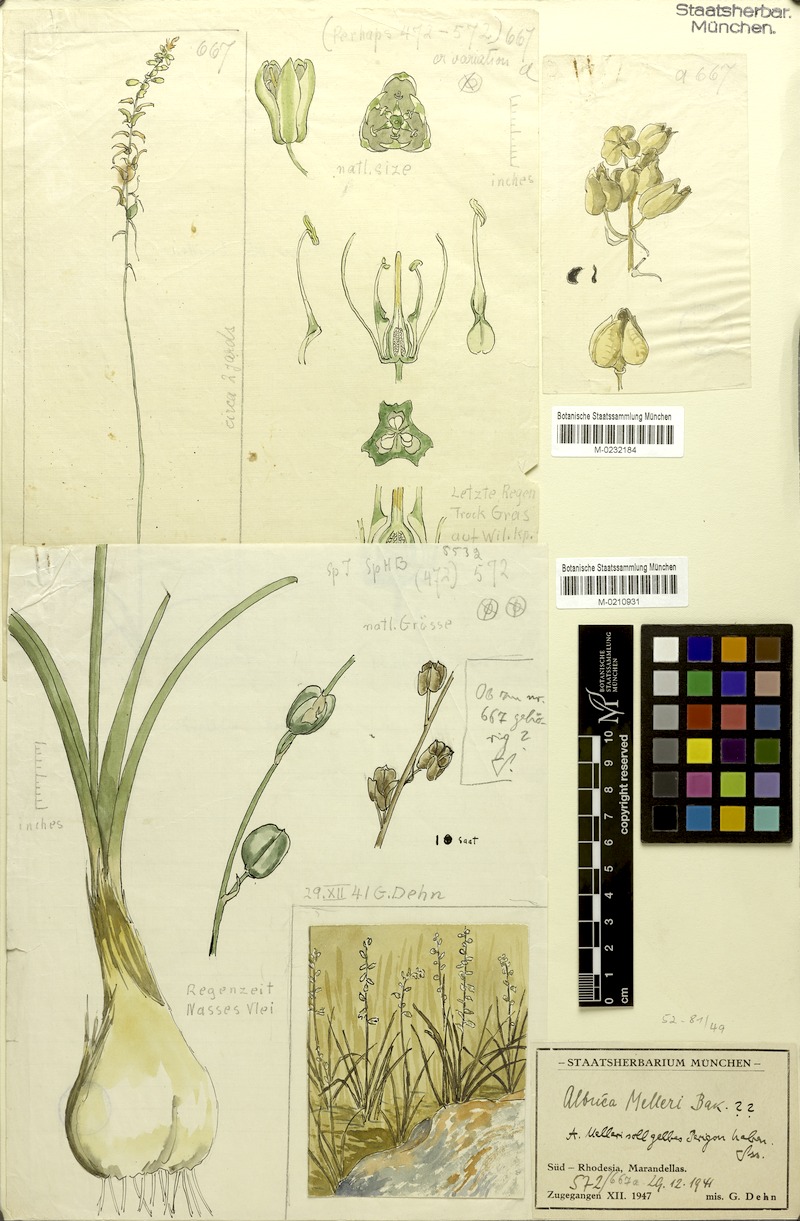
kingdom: Plantae
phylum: Tracheophyta
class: Liliopsida
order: Asparagales
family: Asparagaceae
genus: Albuca
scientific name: Albuca abyssinica
